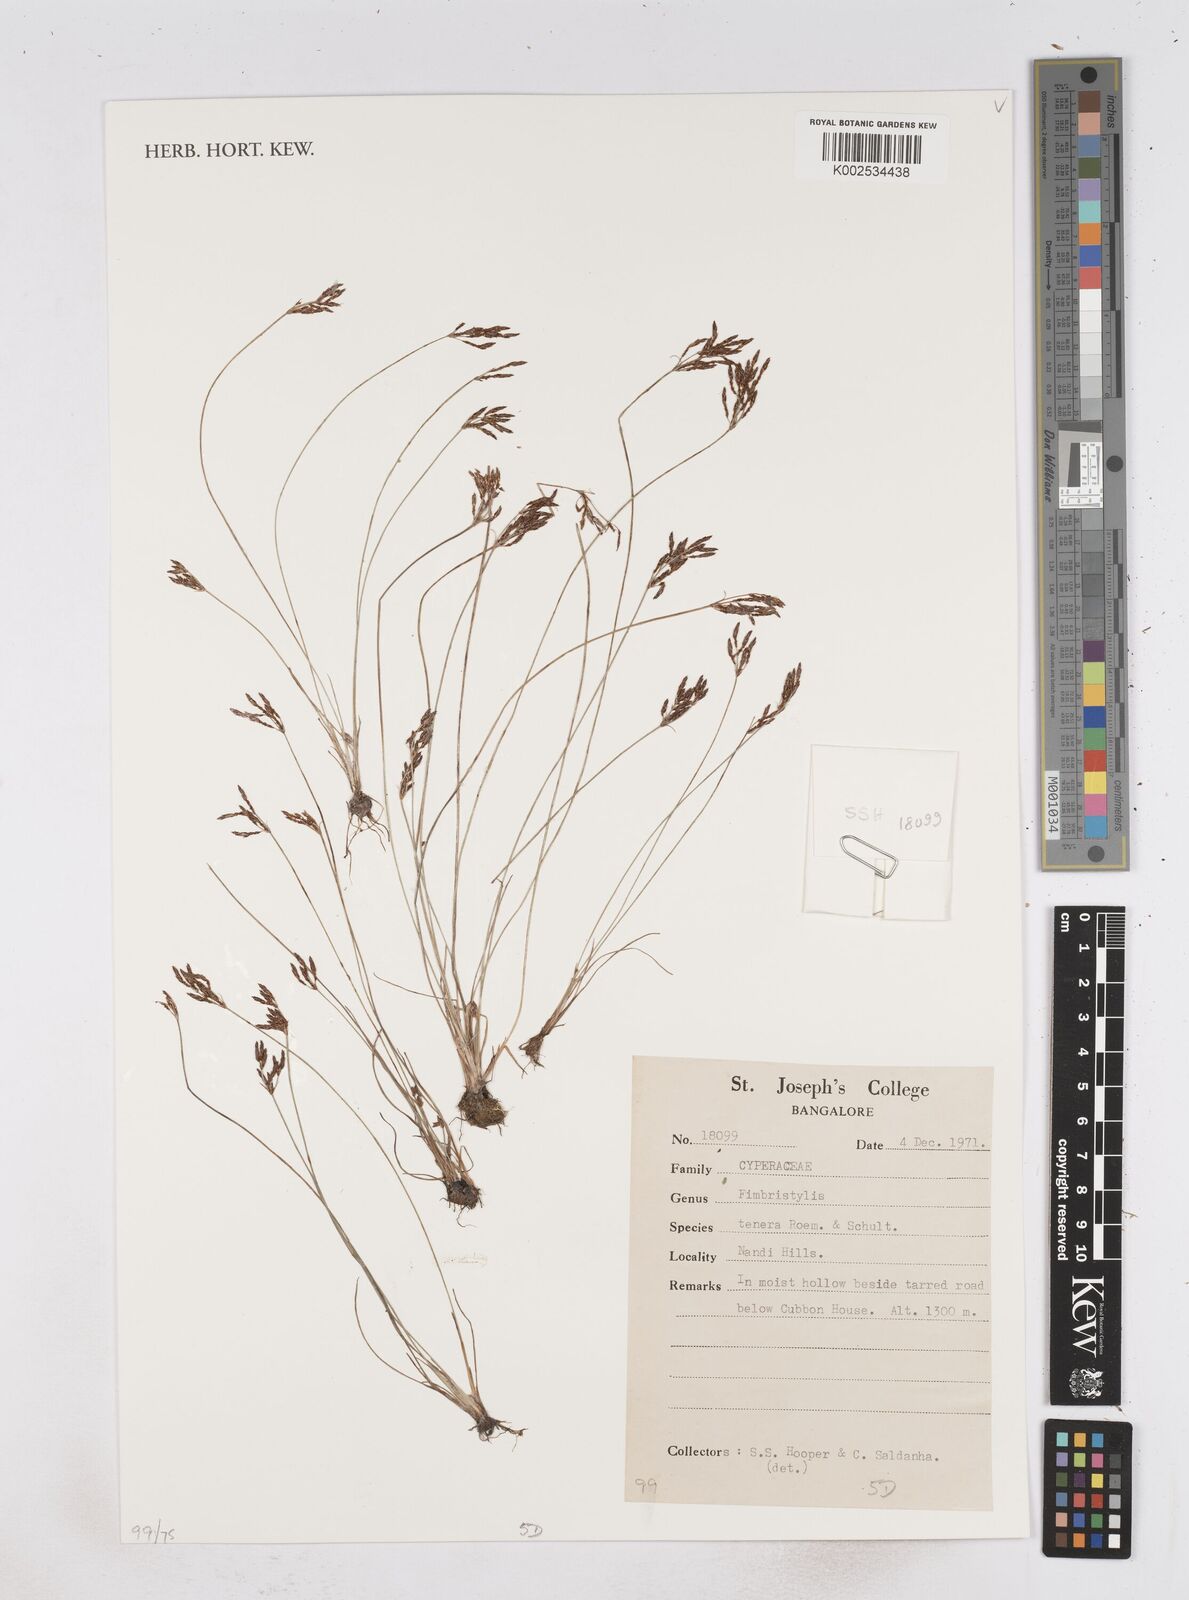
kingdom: Plantae
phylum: Tracheophyta
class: Liliopsida
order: Poales
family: Cyperaceae
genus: Fimbristylis
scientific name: Fimbristylis tenera
